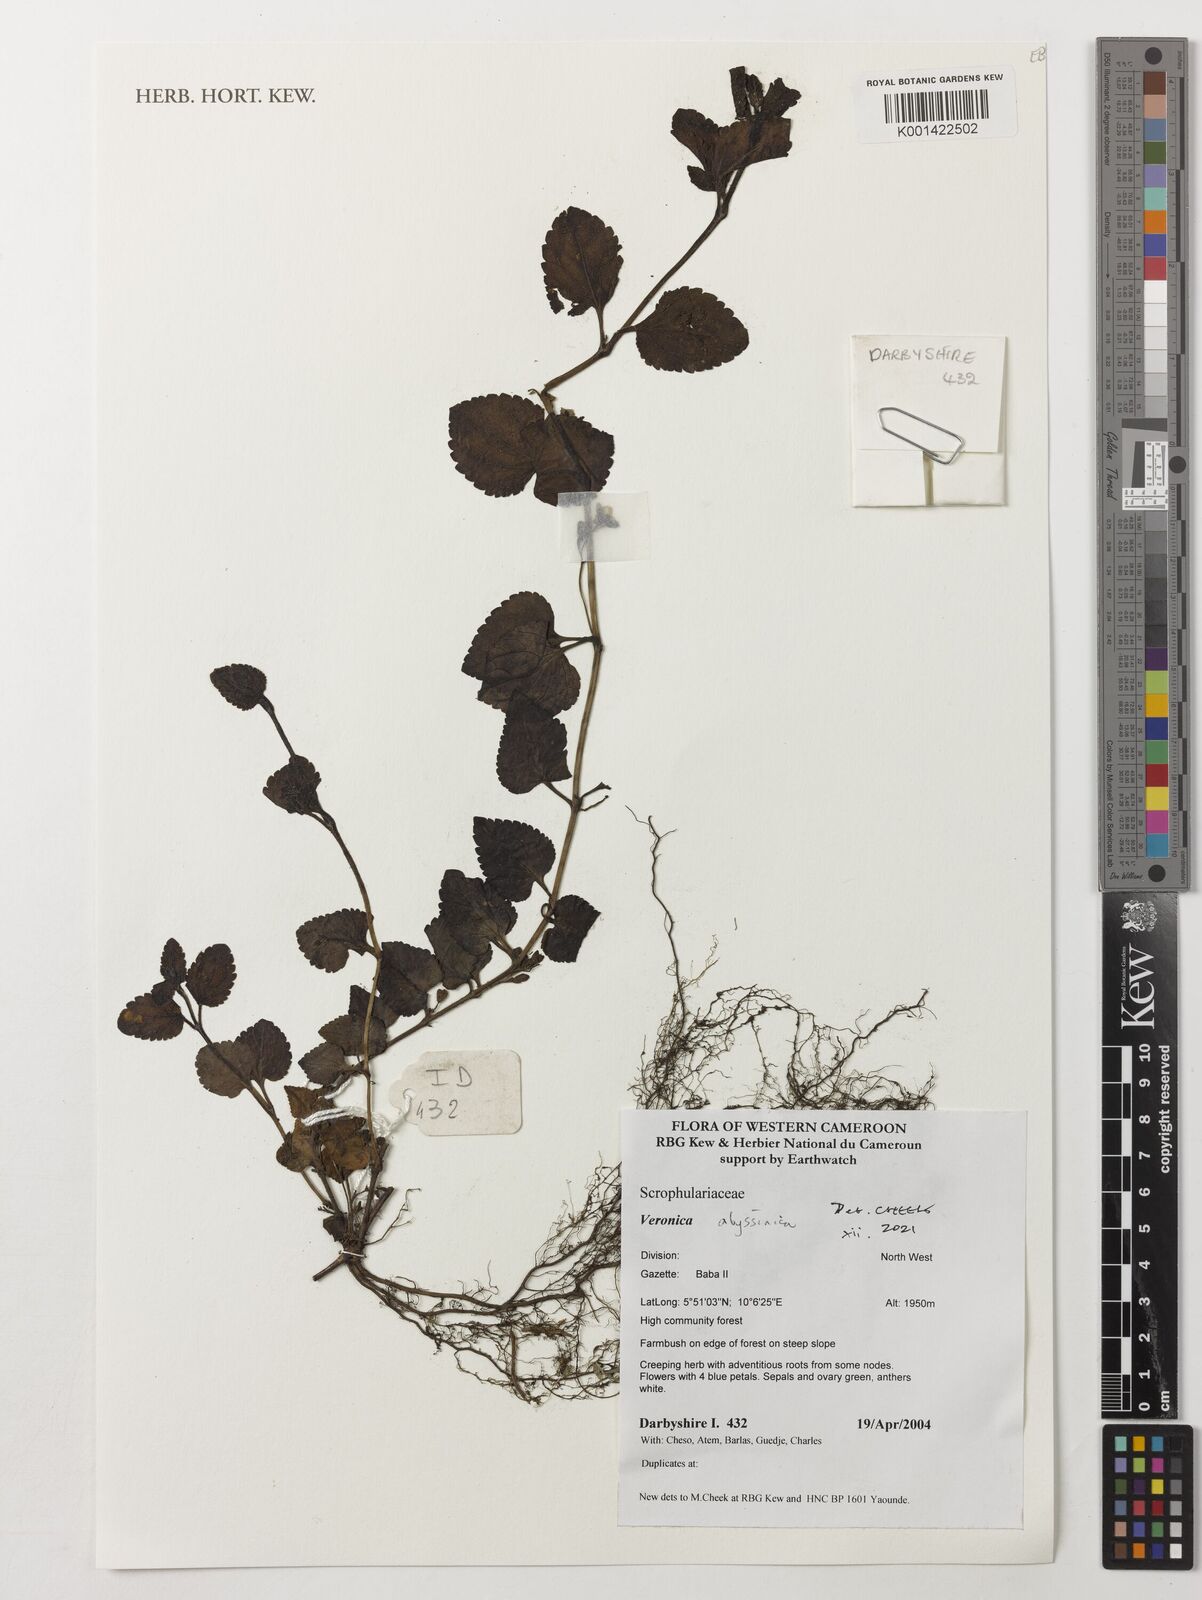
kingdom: Plantae
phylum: Tracheophyta
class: Magnoliopsida
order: Lamiales
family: Plantaginaceae
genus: Veronica
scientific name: Veronica abyssinica
